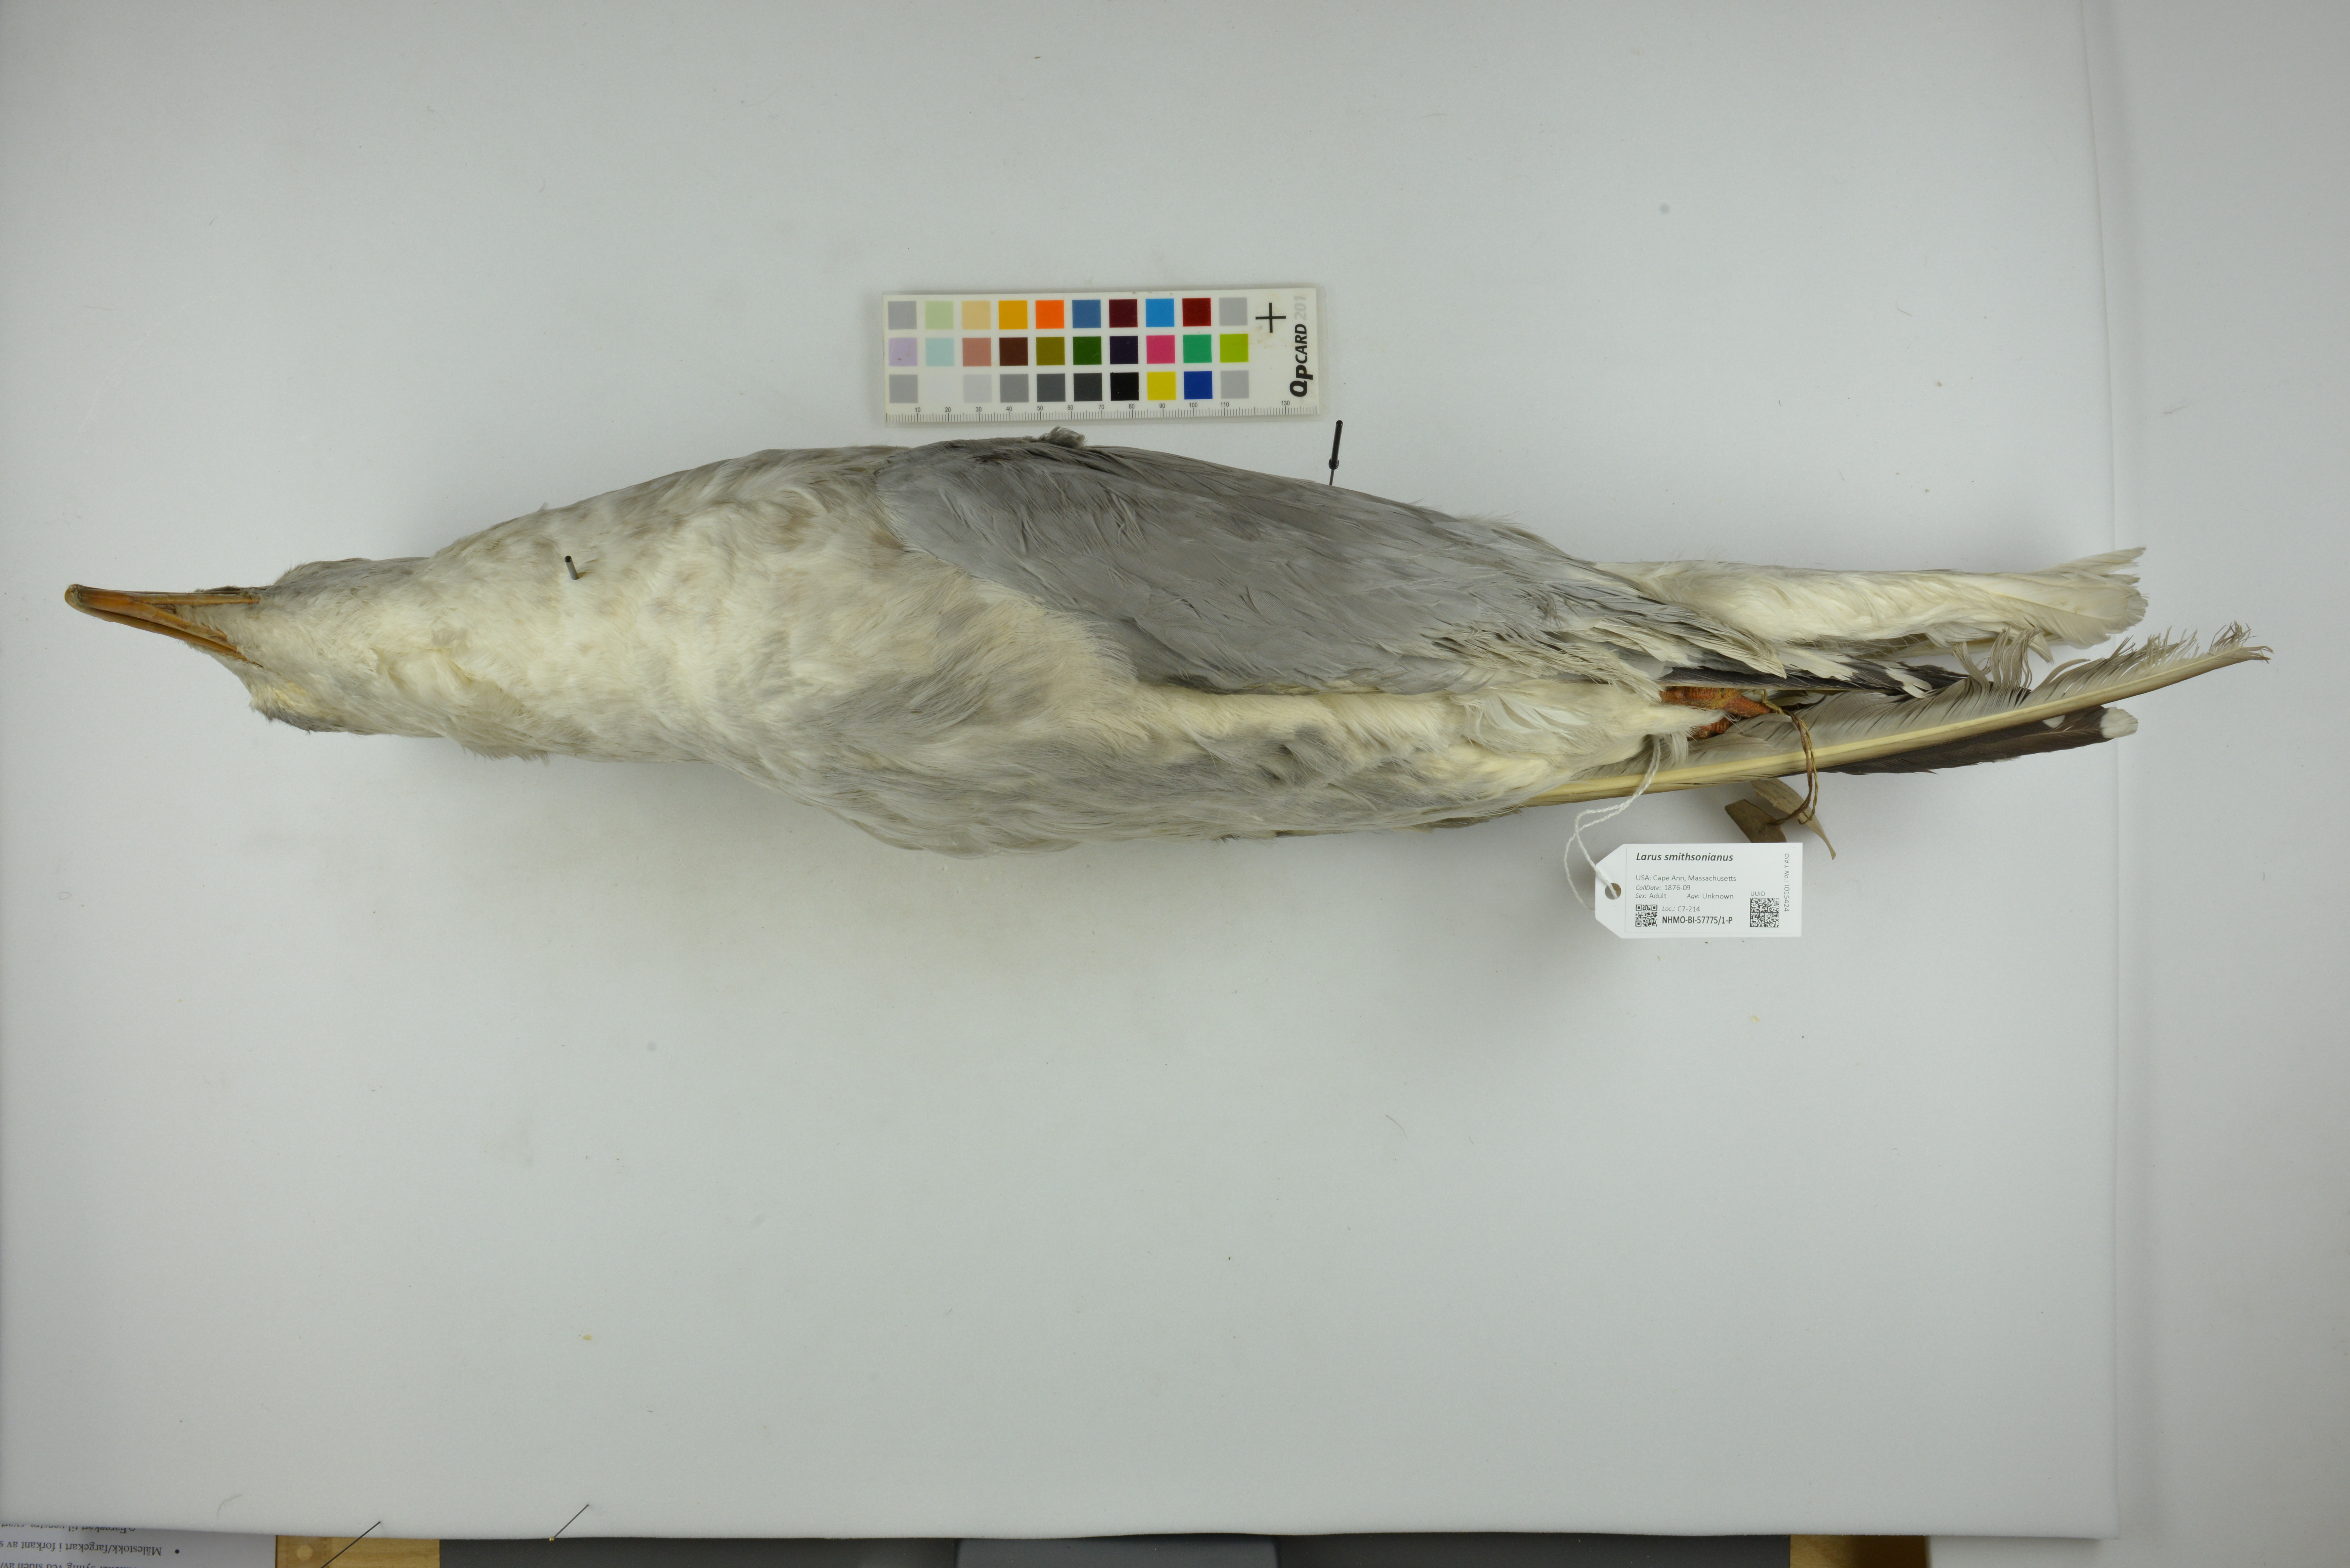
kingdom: Animalia
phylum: Chordata
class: Aves
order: Charadriiformes
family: Laridae
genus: Larus
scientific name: Larus smithsonianus
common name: American herring gull
